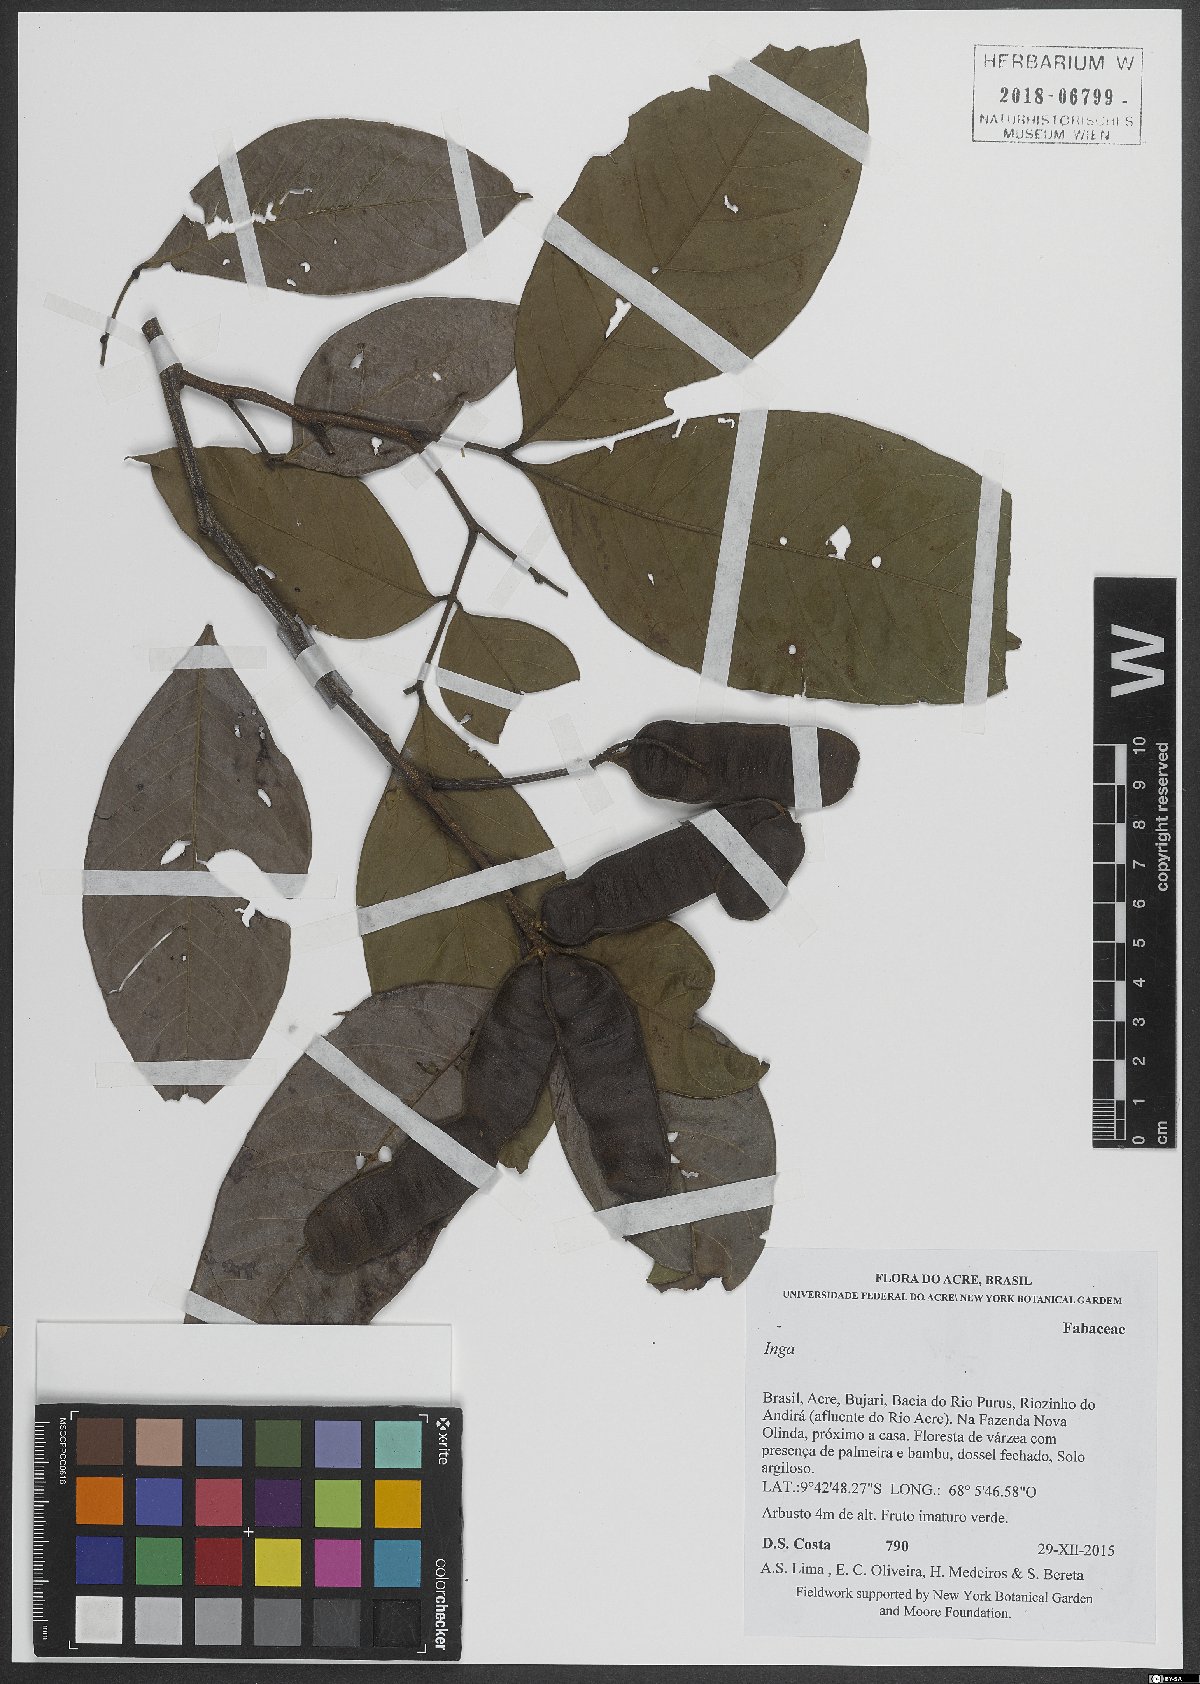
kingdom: Plantae
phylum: Tracheophyta
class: Magnoliopsida
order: Fabales
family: Fabaceae
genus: Inga
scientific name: Inga
